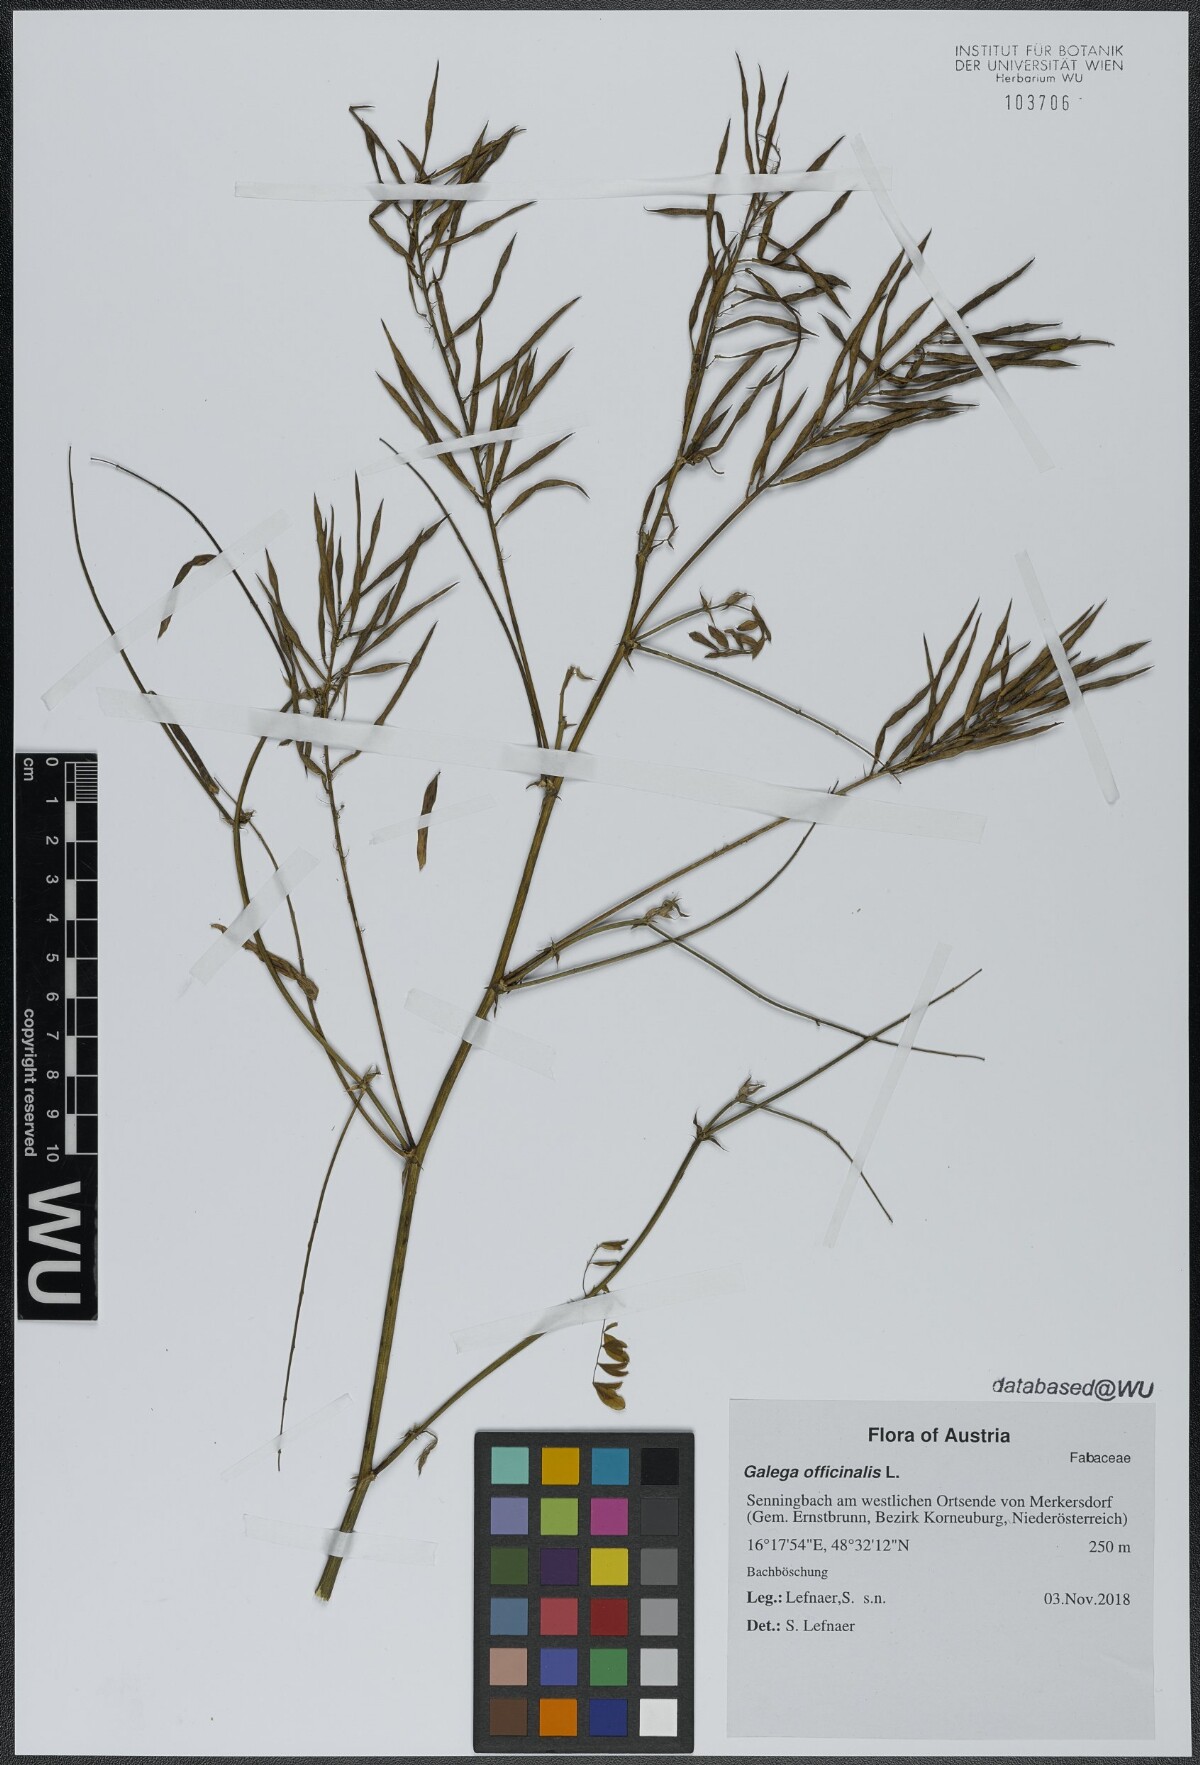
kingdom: Plantae
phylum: Tracheophyta
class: Magnoliopsida
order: Fabales
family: Fabaceae
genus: Galega
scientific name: Galega officinalis
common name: Goat's-rue
